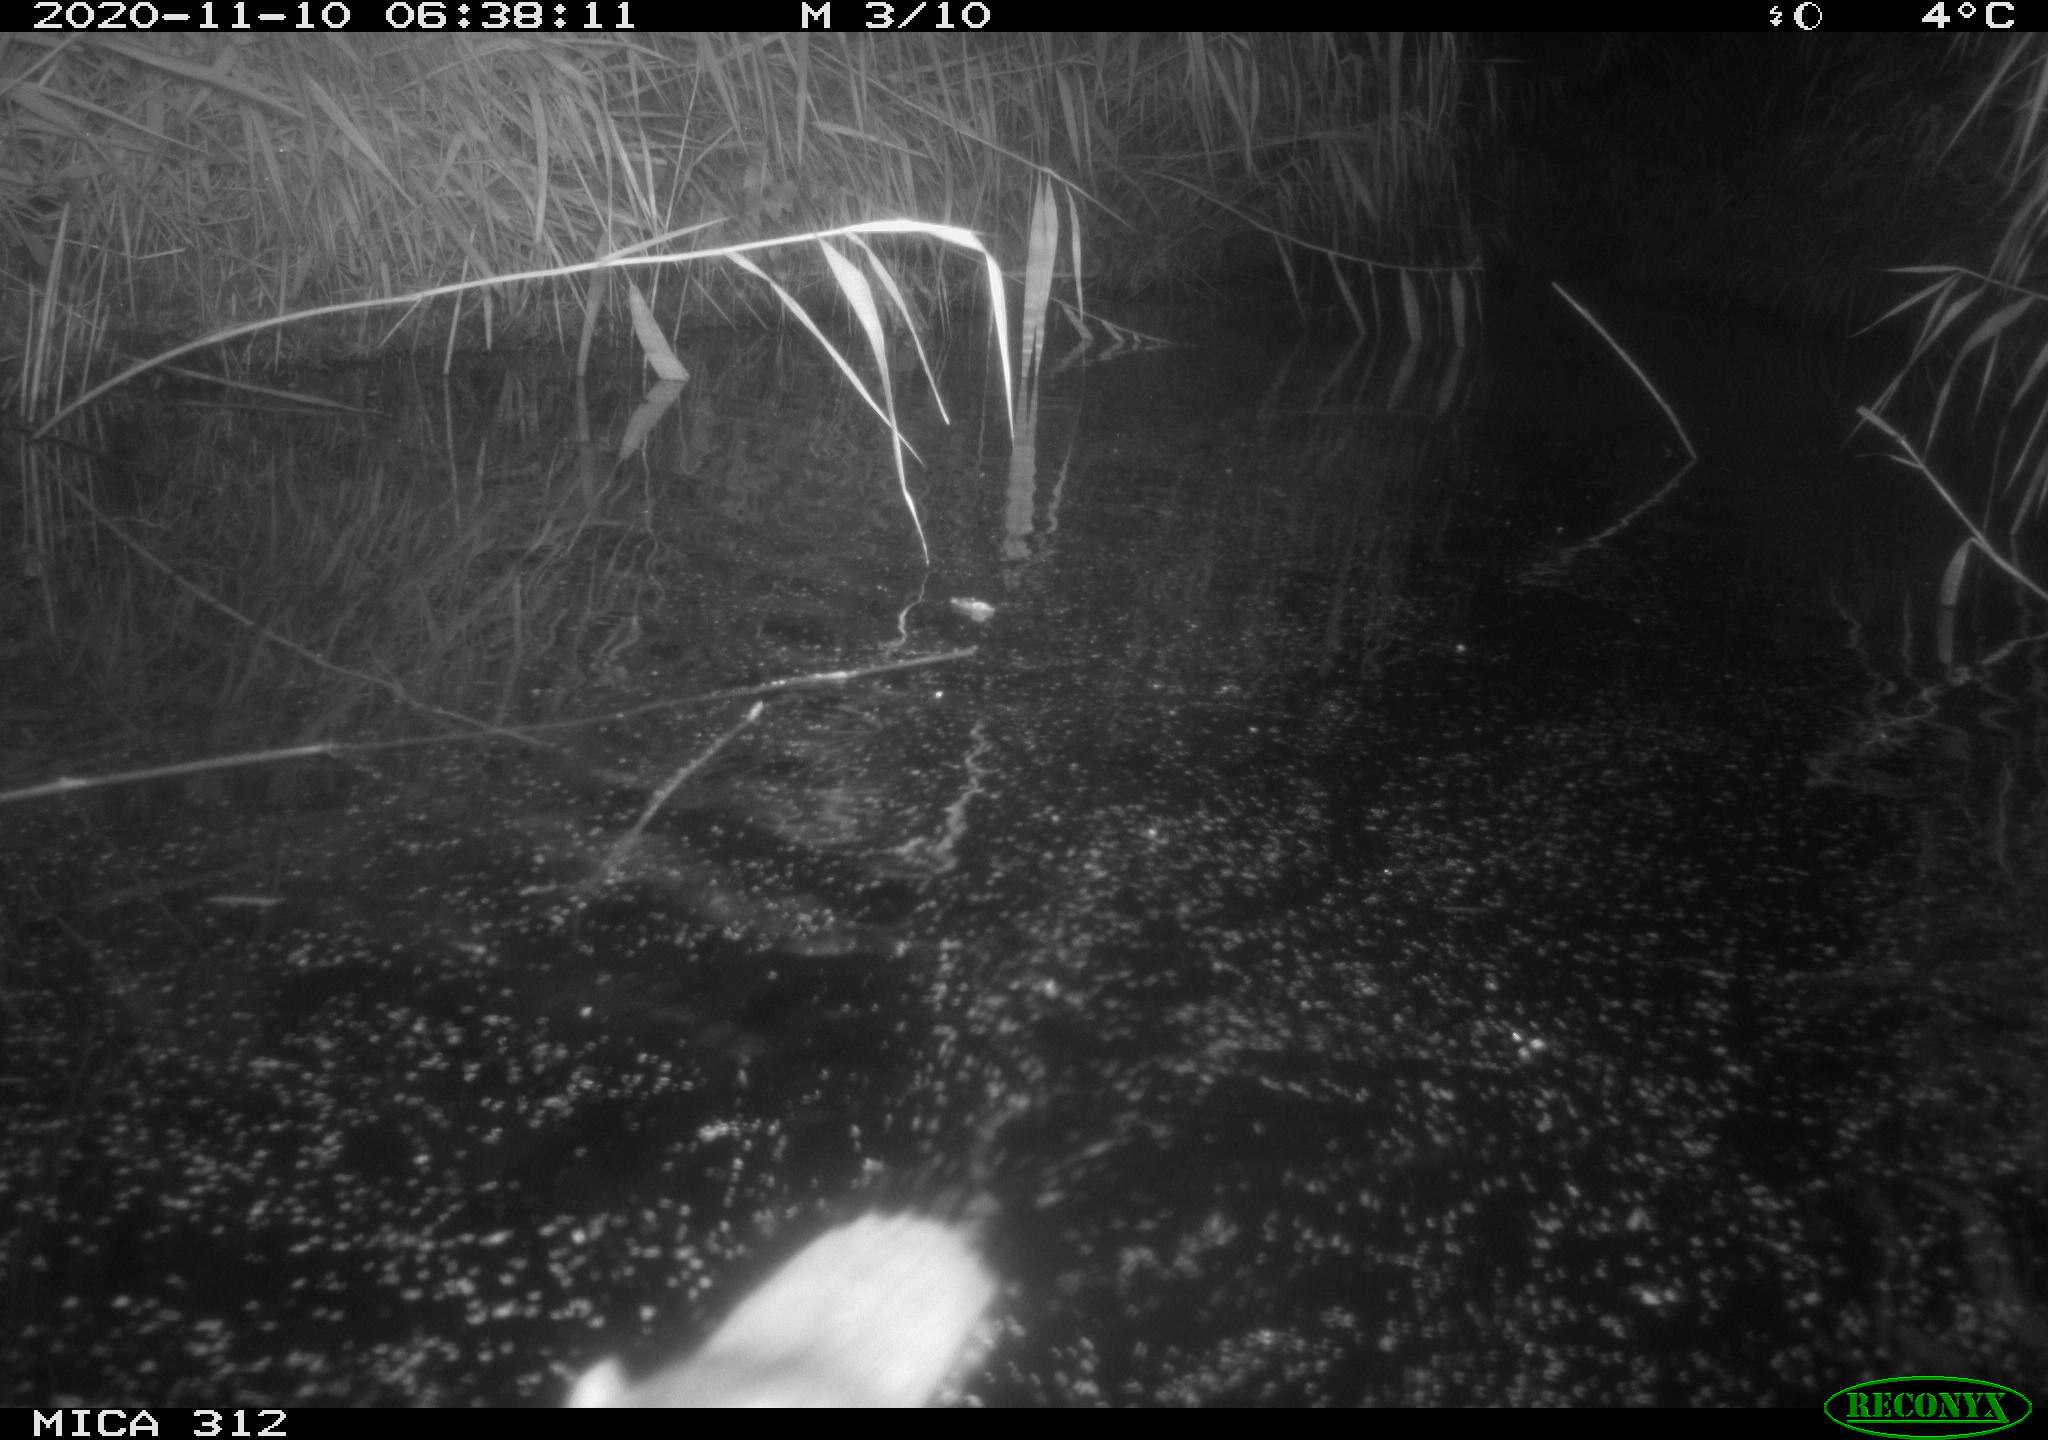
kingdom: Animalia
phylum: Chordata
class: Mammalia
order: Rodentia
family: Muridae
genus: Rattus
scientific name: Rattus norvegicus
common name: Brown rat
